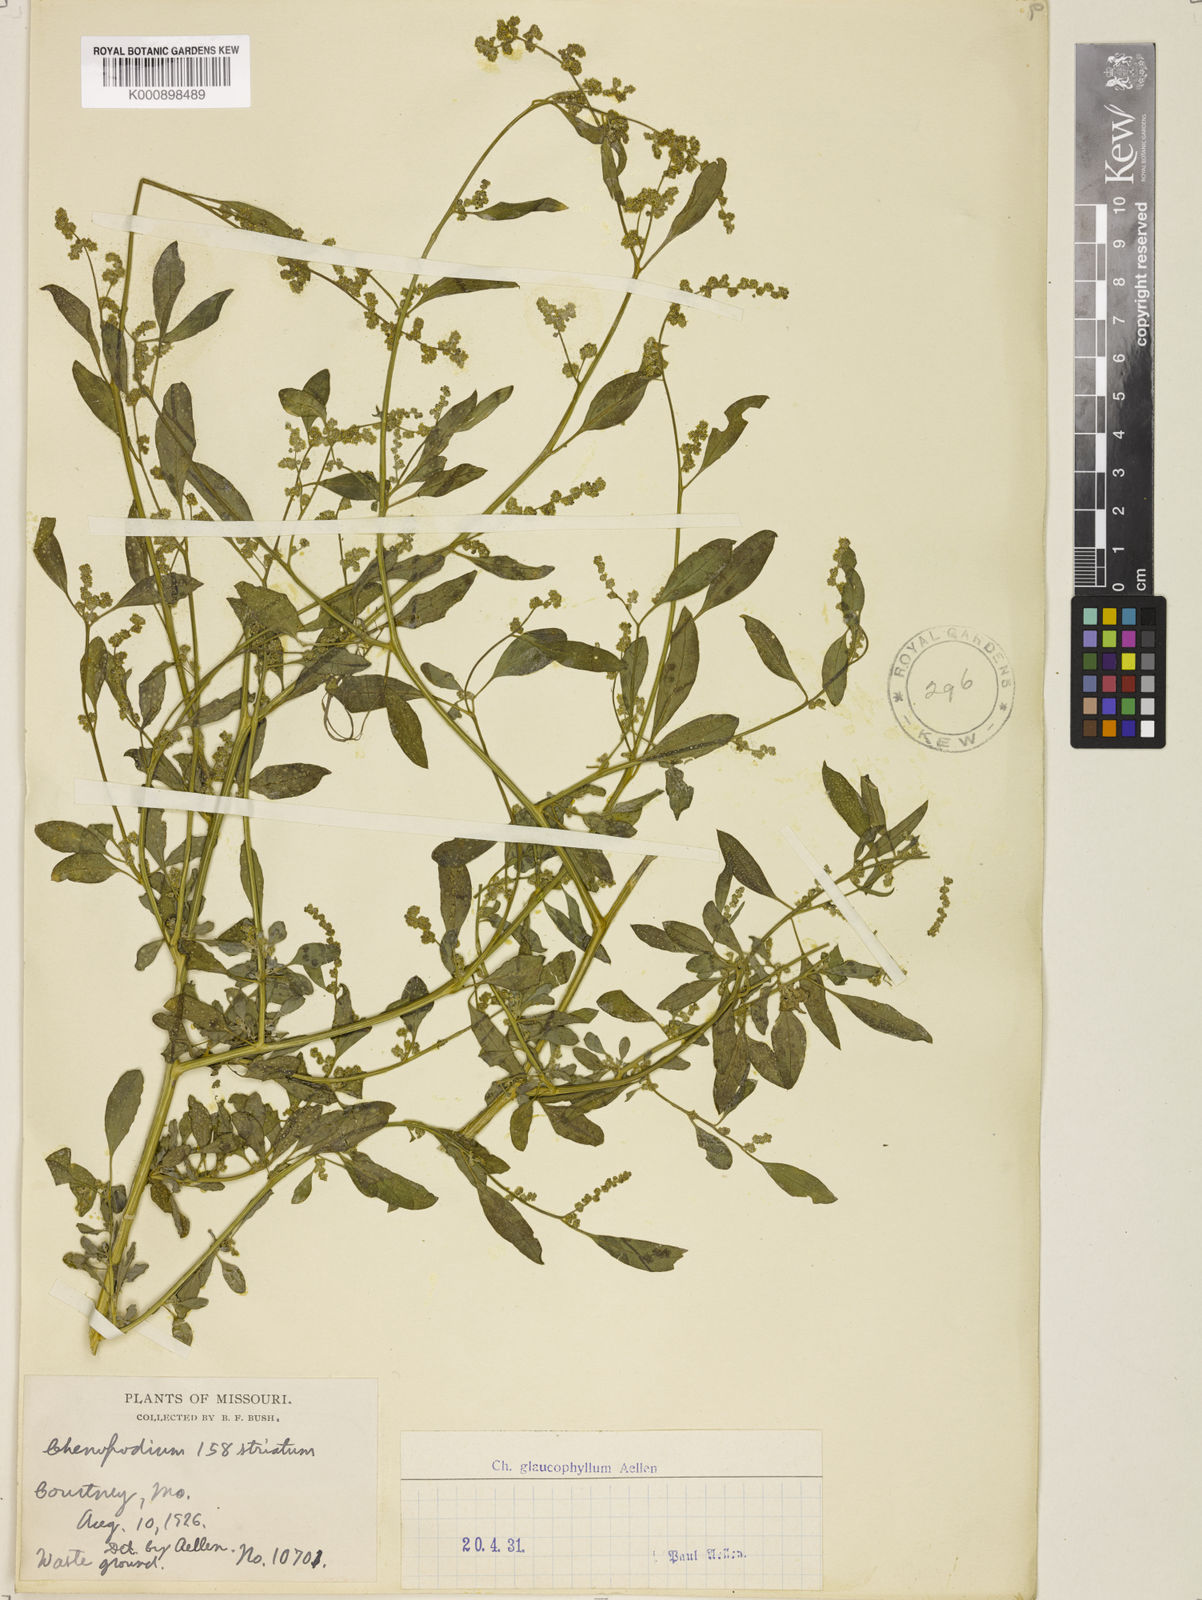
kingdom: Plantae
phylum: Tracheophyta
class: Magnoliopsida
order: Caryophyllales
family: Amaranthaceae
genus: Chenopodium
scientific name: Chenopodium betaceum
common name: Striped goosefoot
